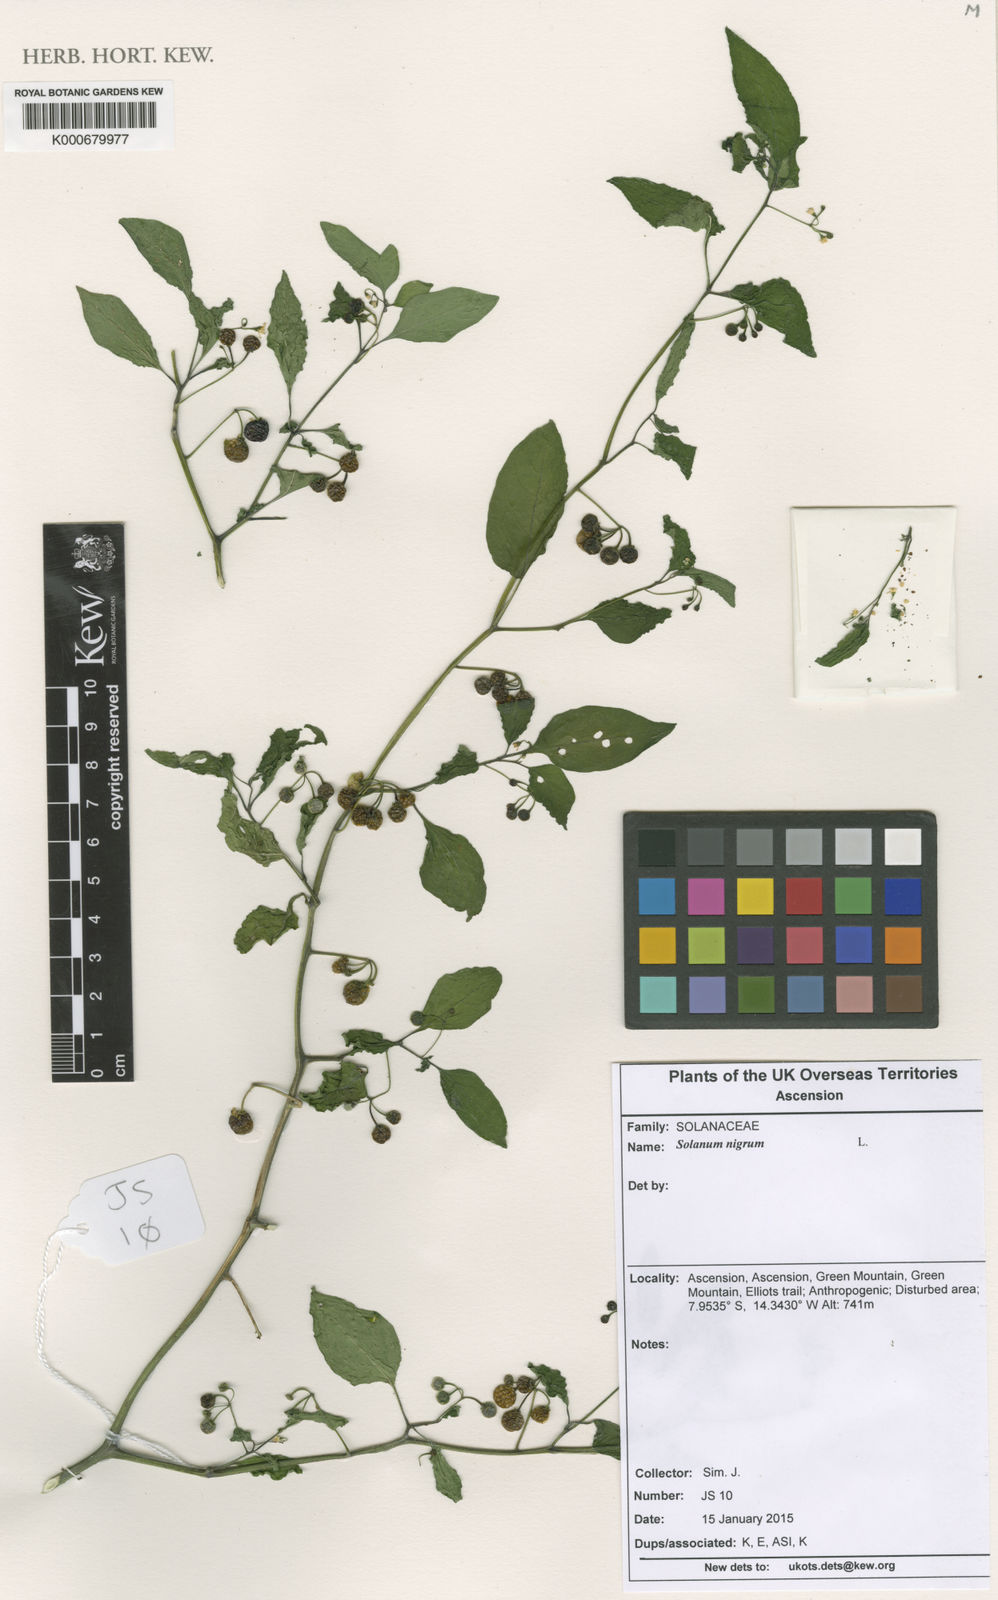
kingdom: Plantae
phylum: Tracheophyta
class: Magnoliopsida
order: Solanales
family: Solanaceae
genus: Solanum
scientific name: Solanum americanum
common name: American black nightshade
